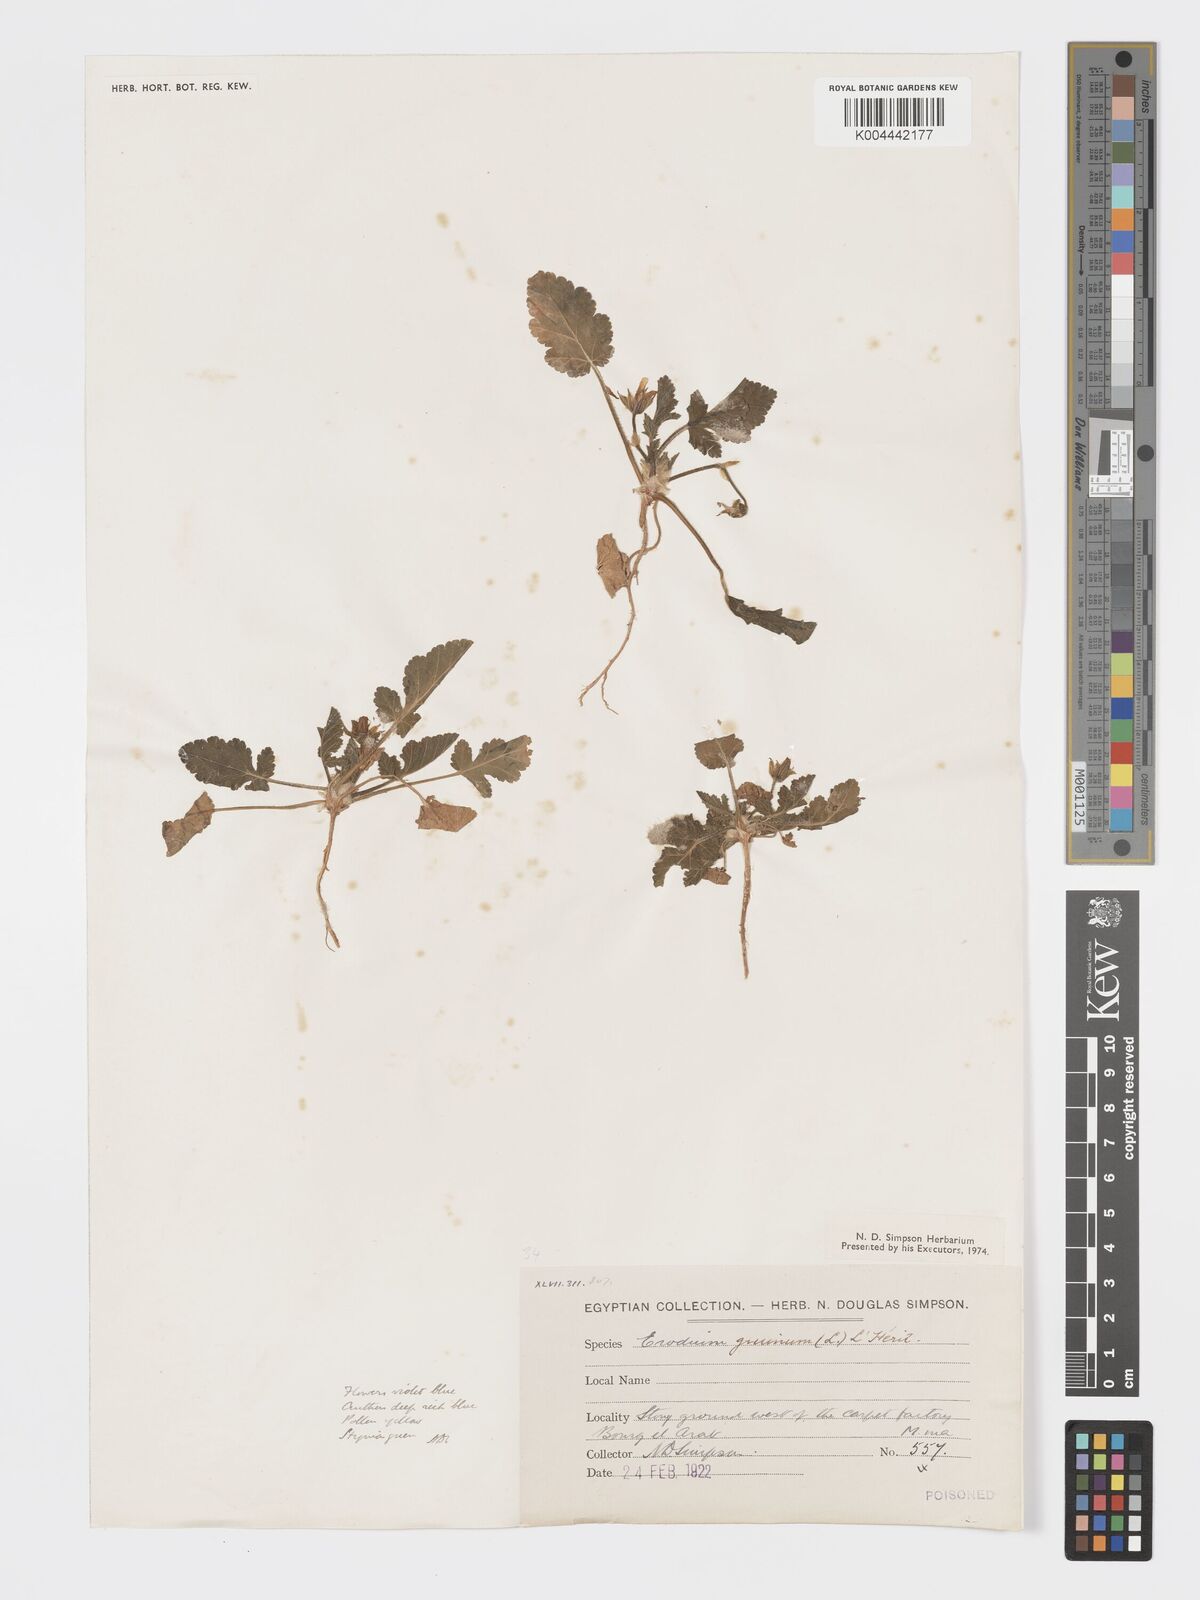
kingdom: Plantae
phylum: Tracheophyta
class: Magnoliopsida
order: Geraniales
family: Geraniaceae
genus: Erodium
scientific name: Erodium gruinum
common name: Iranian stork's bill
